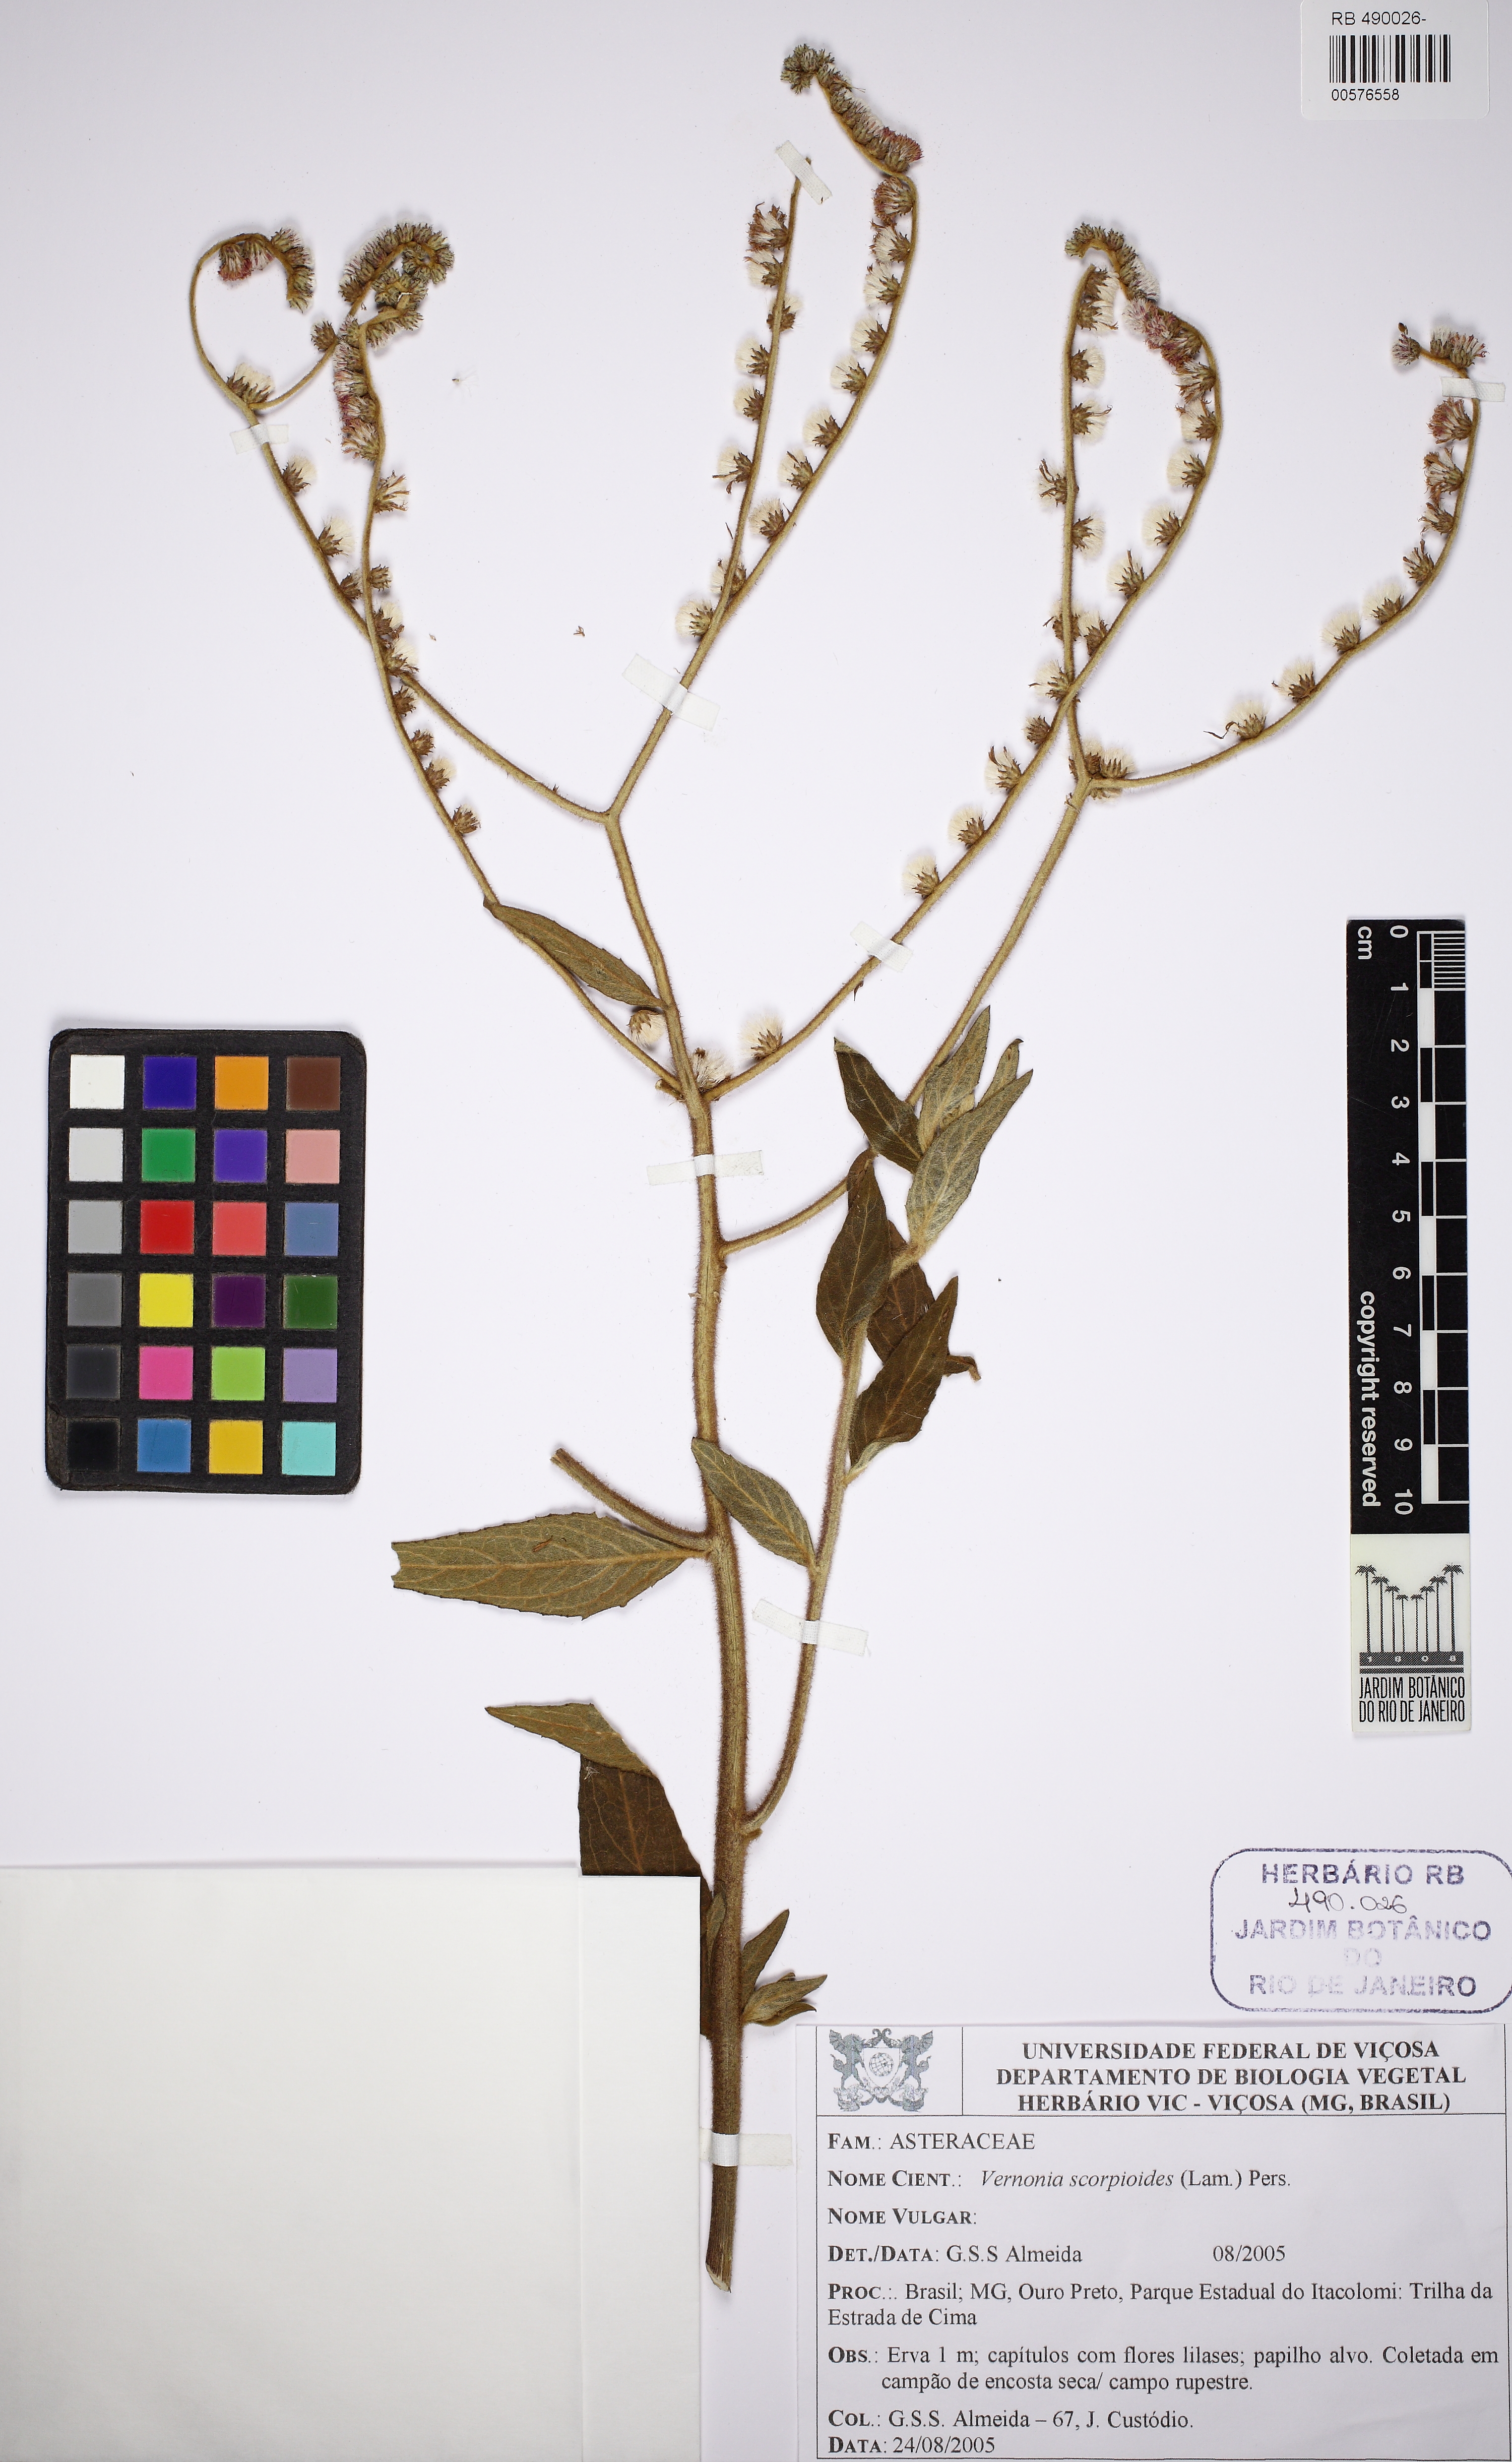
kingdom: Plantae
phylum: Tracheophyta
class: Magnoliopsida
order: Asterales
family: Asteraceae
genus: Cyrtocymura
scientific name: Cyrtocymura scorpioides
